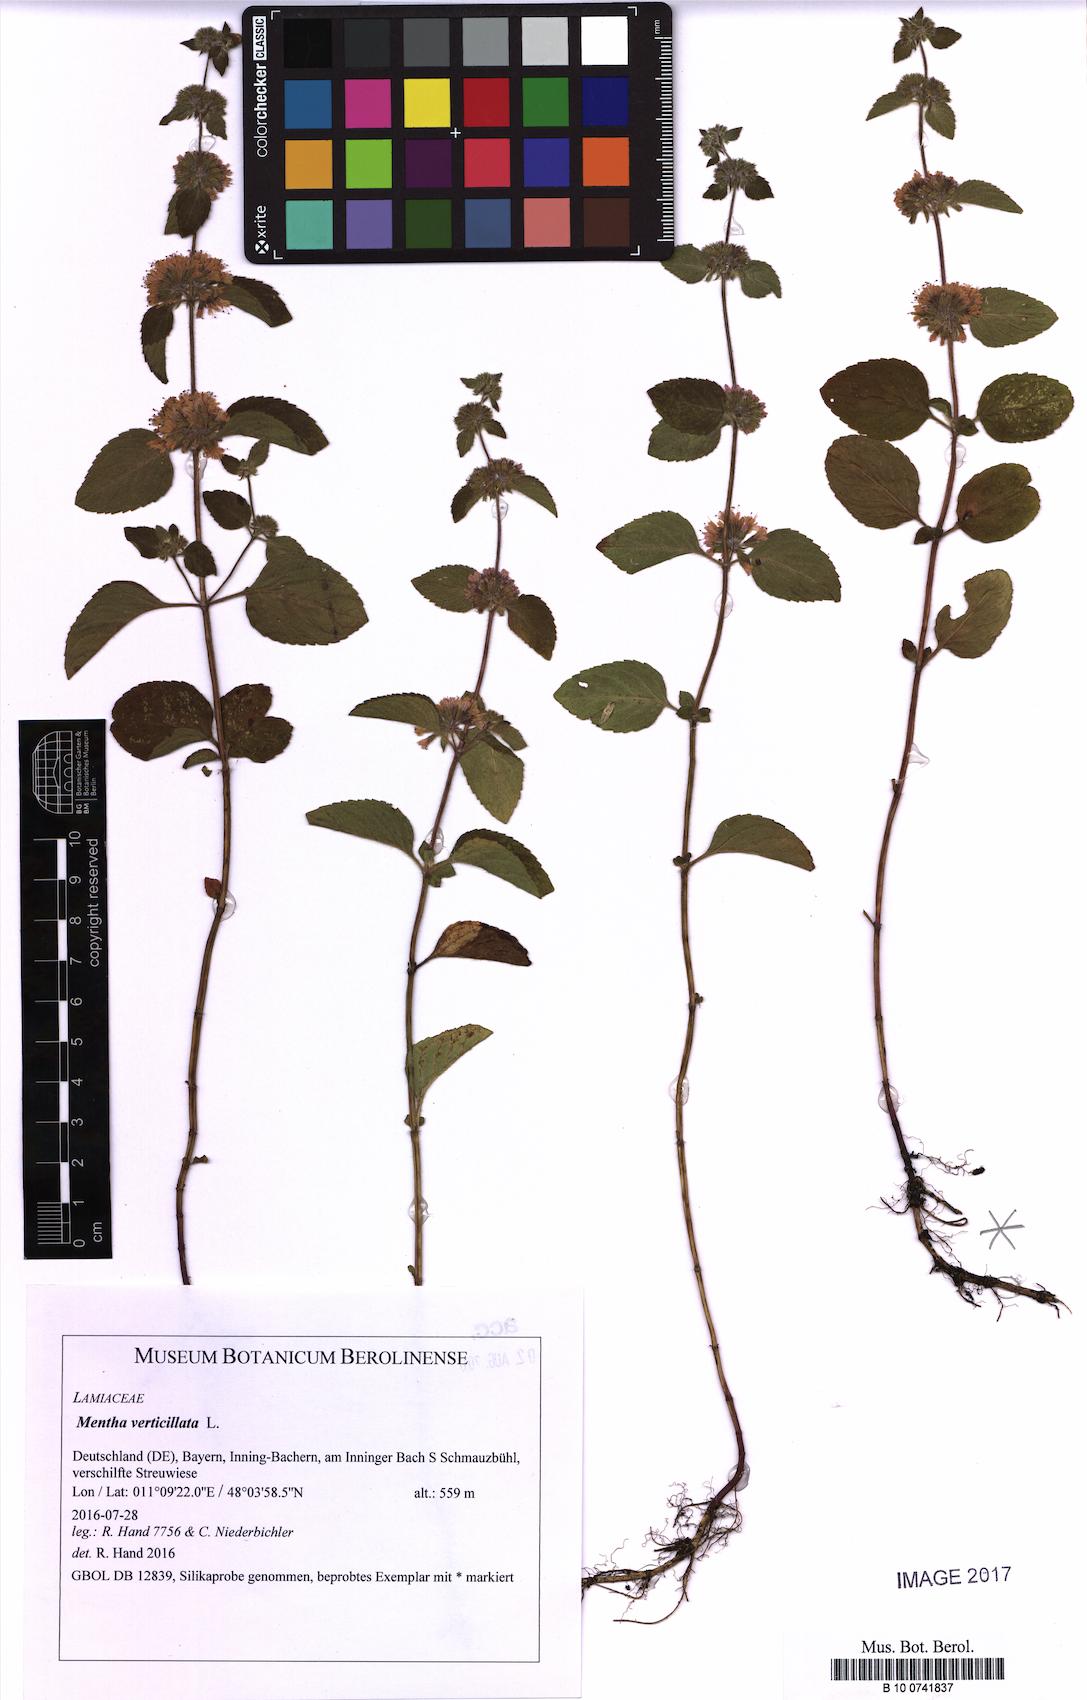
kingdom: Plantae
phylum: Tracheophyta
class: Magnoliopsida
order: Lamiales
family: Lamiaceae
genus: Mentha
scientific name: Mentha verticillata
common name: Mint
